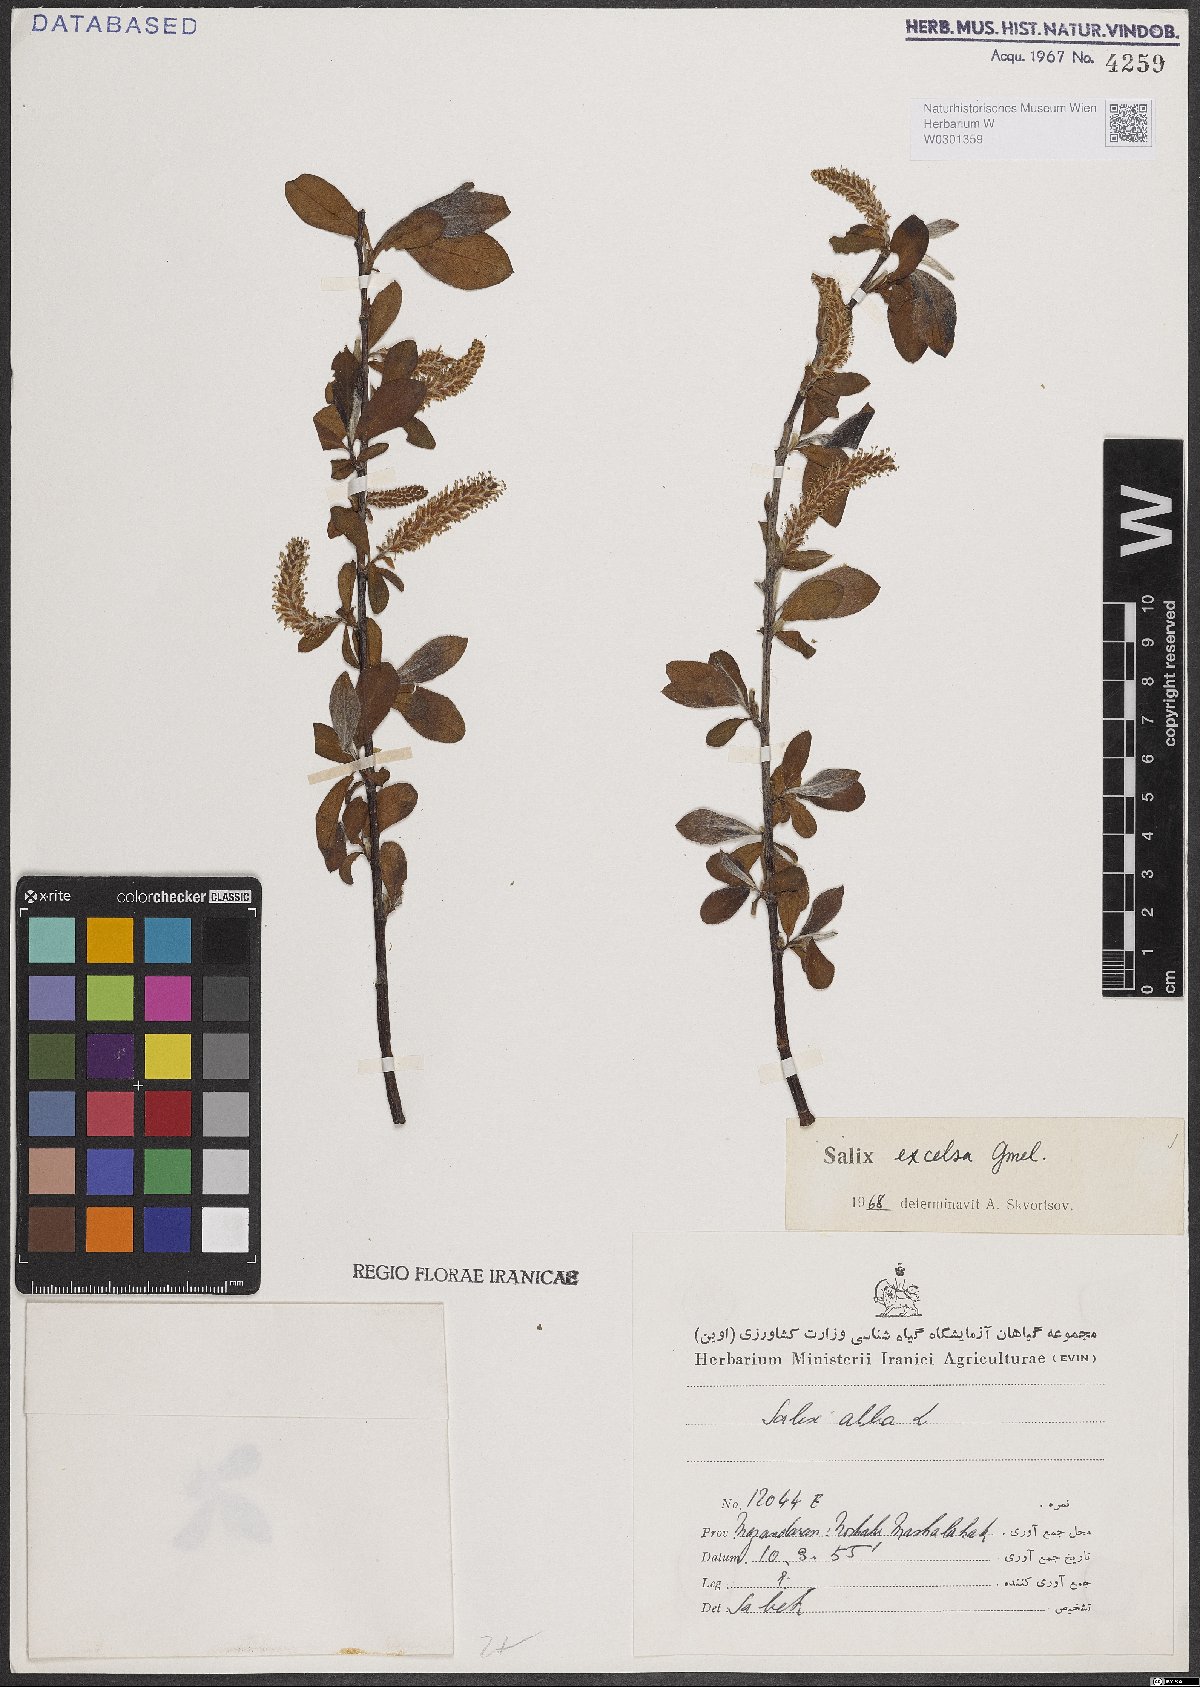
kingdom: Plantae
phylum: Tracheophyta
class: Magnoliopsida
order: Malpighiales
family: Salicaceae
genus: Salix
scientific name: Salix excelsa
